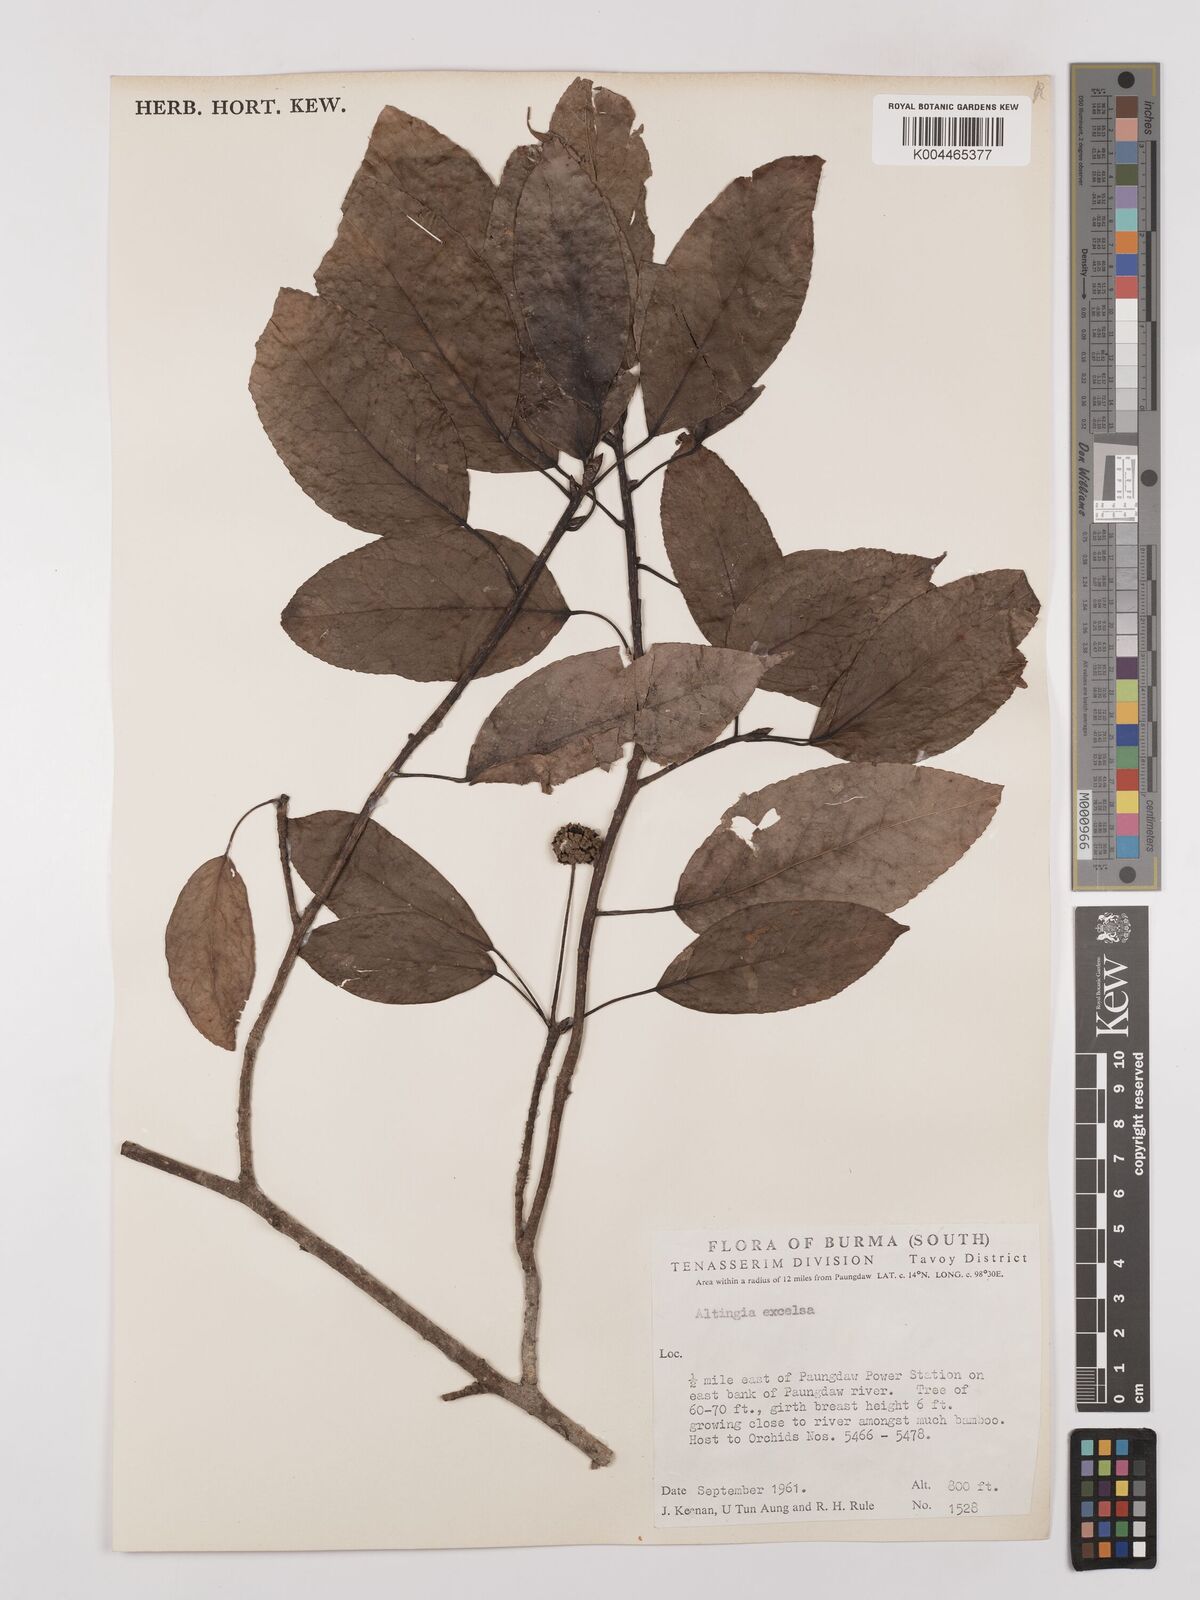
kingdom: Plantae
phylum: Tracheophyta
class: Magnoliopsida
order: Saxifragales
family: Altingiaceae
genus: Liquidambar
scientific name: Liquidambar excelsa
